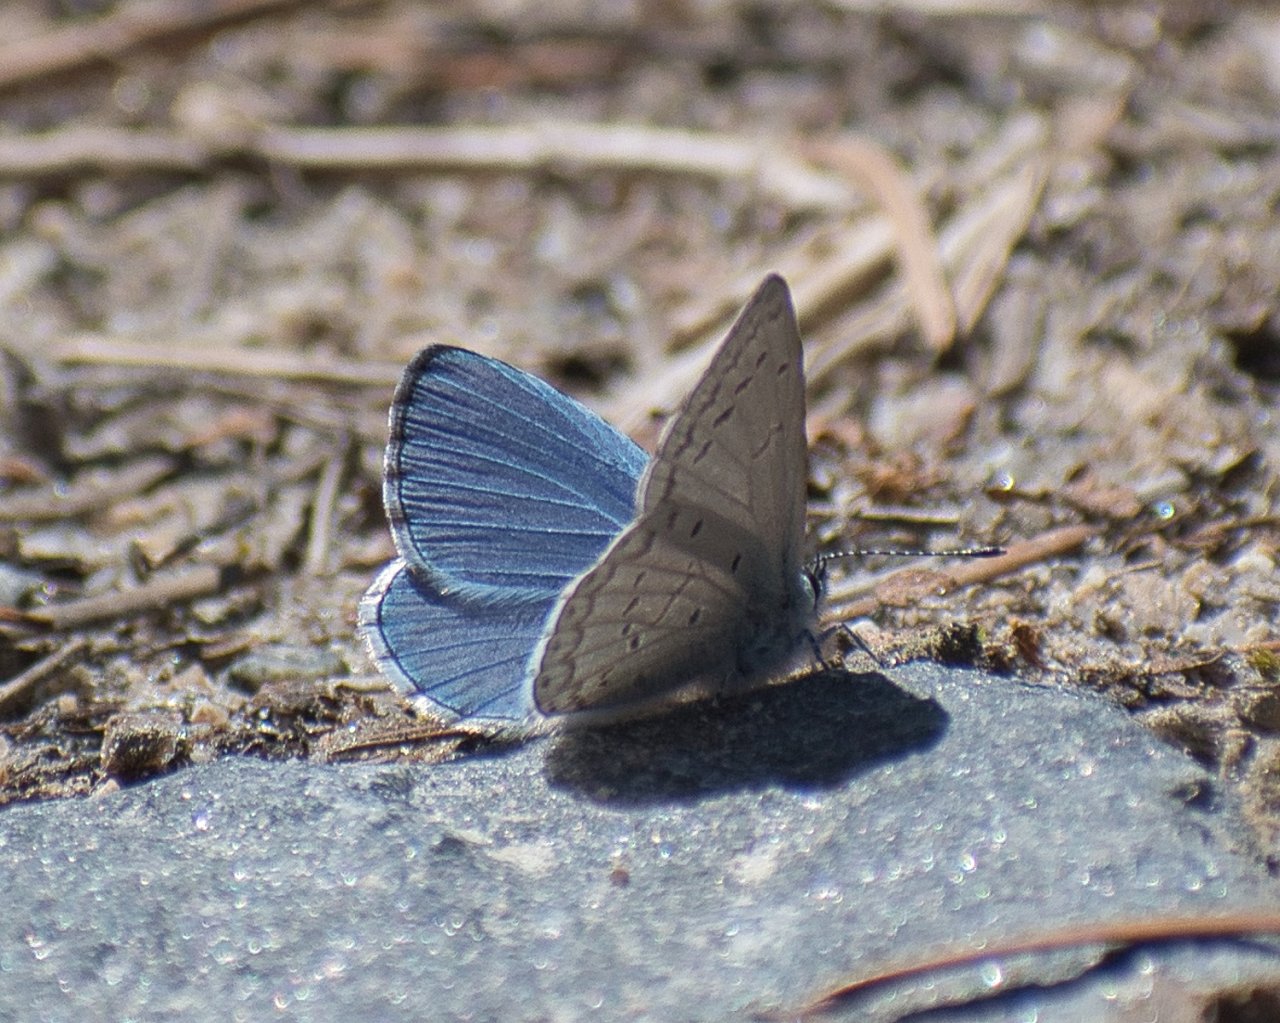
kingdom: Animalia
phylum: Arthropoda
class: Insecta
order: Lepidoptera
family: Lycaenidae
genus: Celastrina
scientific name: Celastrina ladon
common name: Echo Azure
